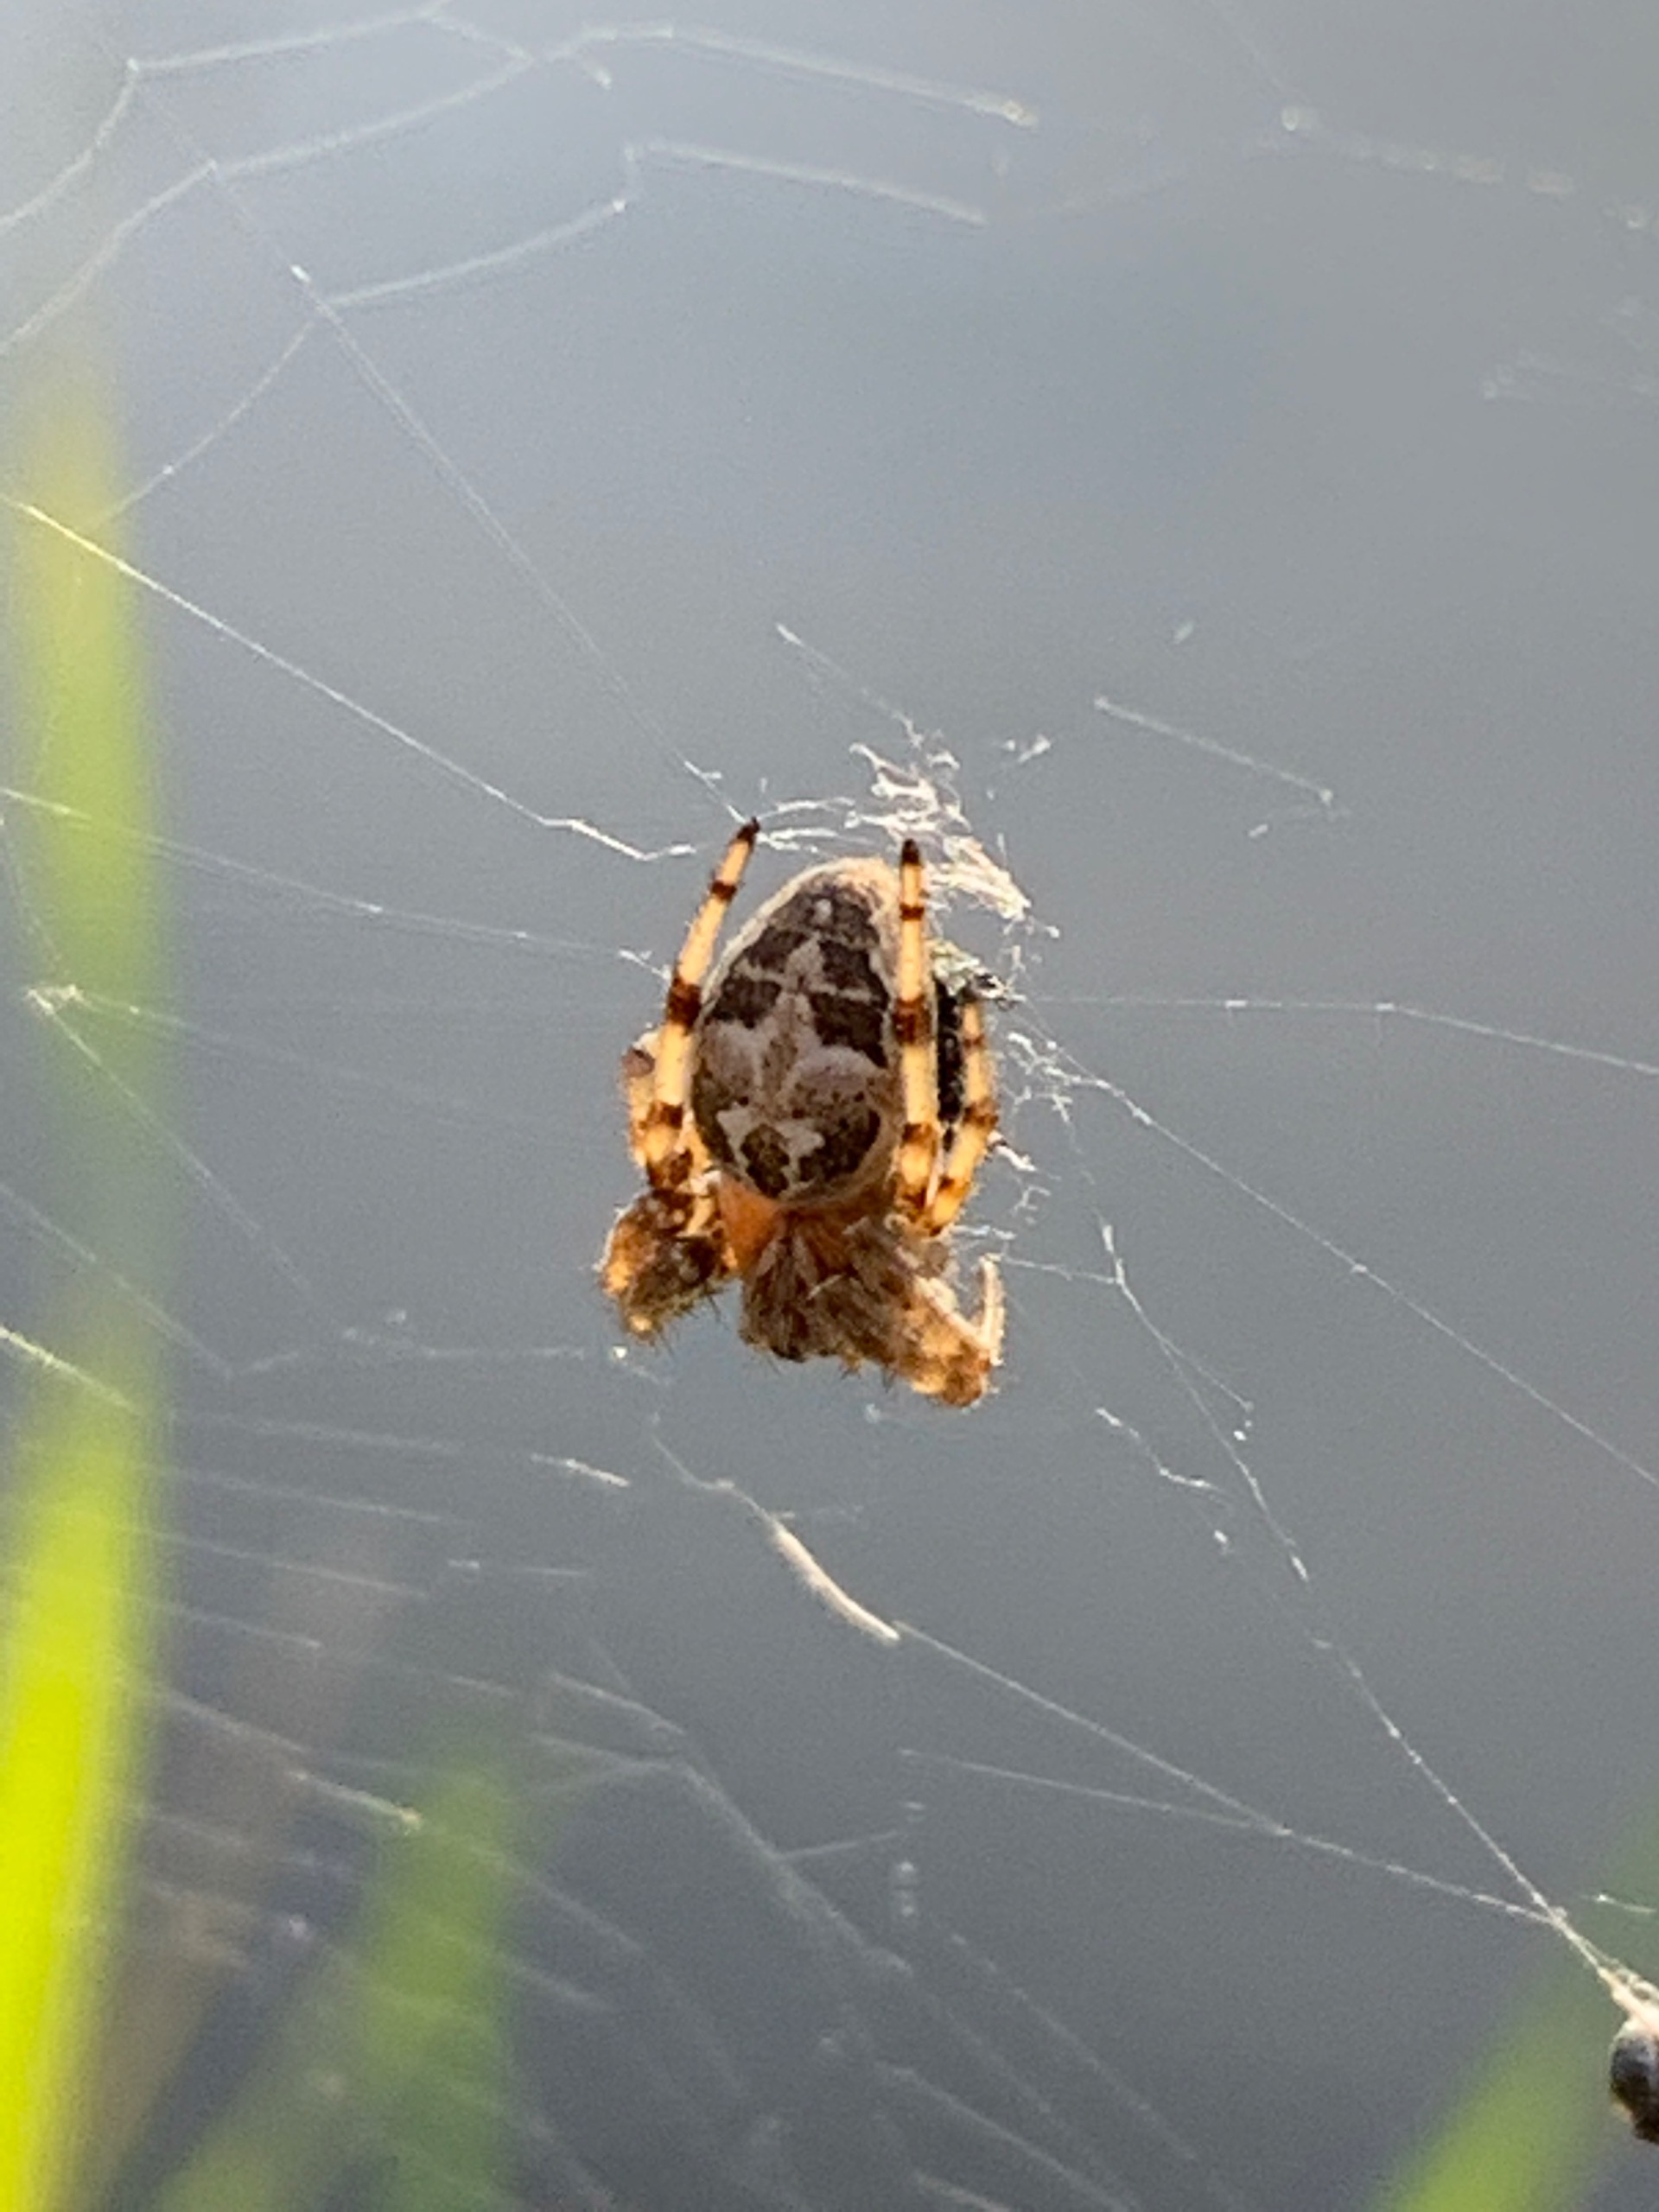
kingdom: Animalia
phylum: Arthropoda
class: Arachnida
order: Araneae
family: Araneidae
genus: Larinioides
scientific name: Larinioides cornutus
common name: Sivhjulspinder
